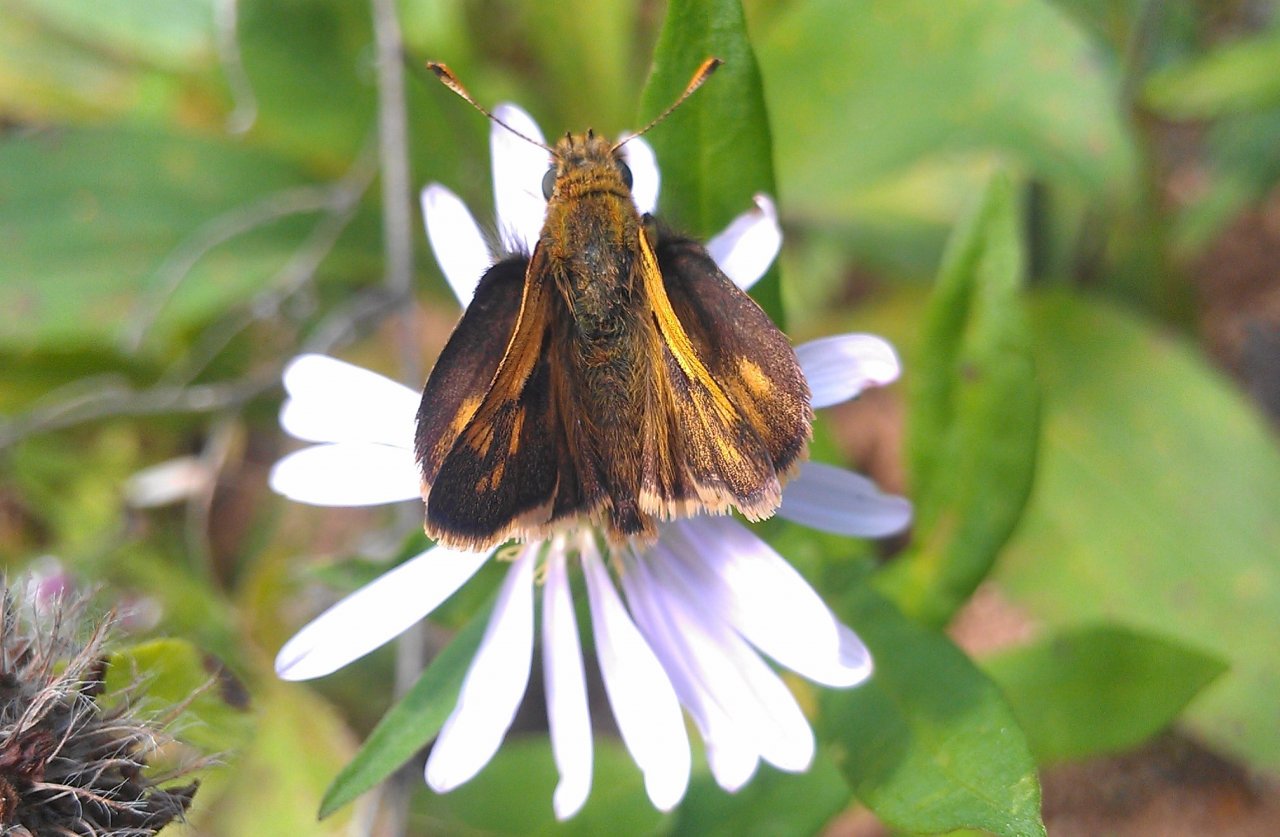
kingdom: Animalia
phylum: Arthropoda
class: Insecta
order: Lepidoptera
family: Hesperiidae
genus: Polites
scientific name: Polites coras
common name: Peck's Skipper
